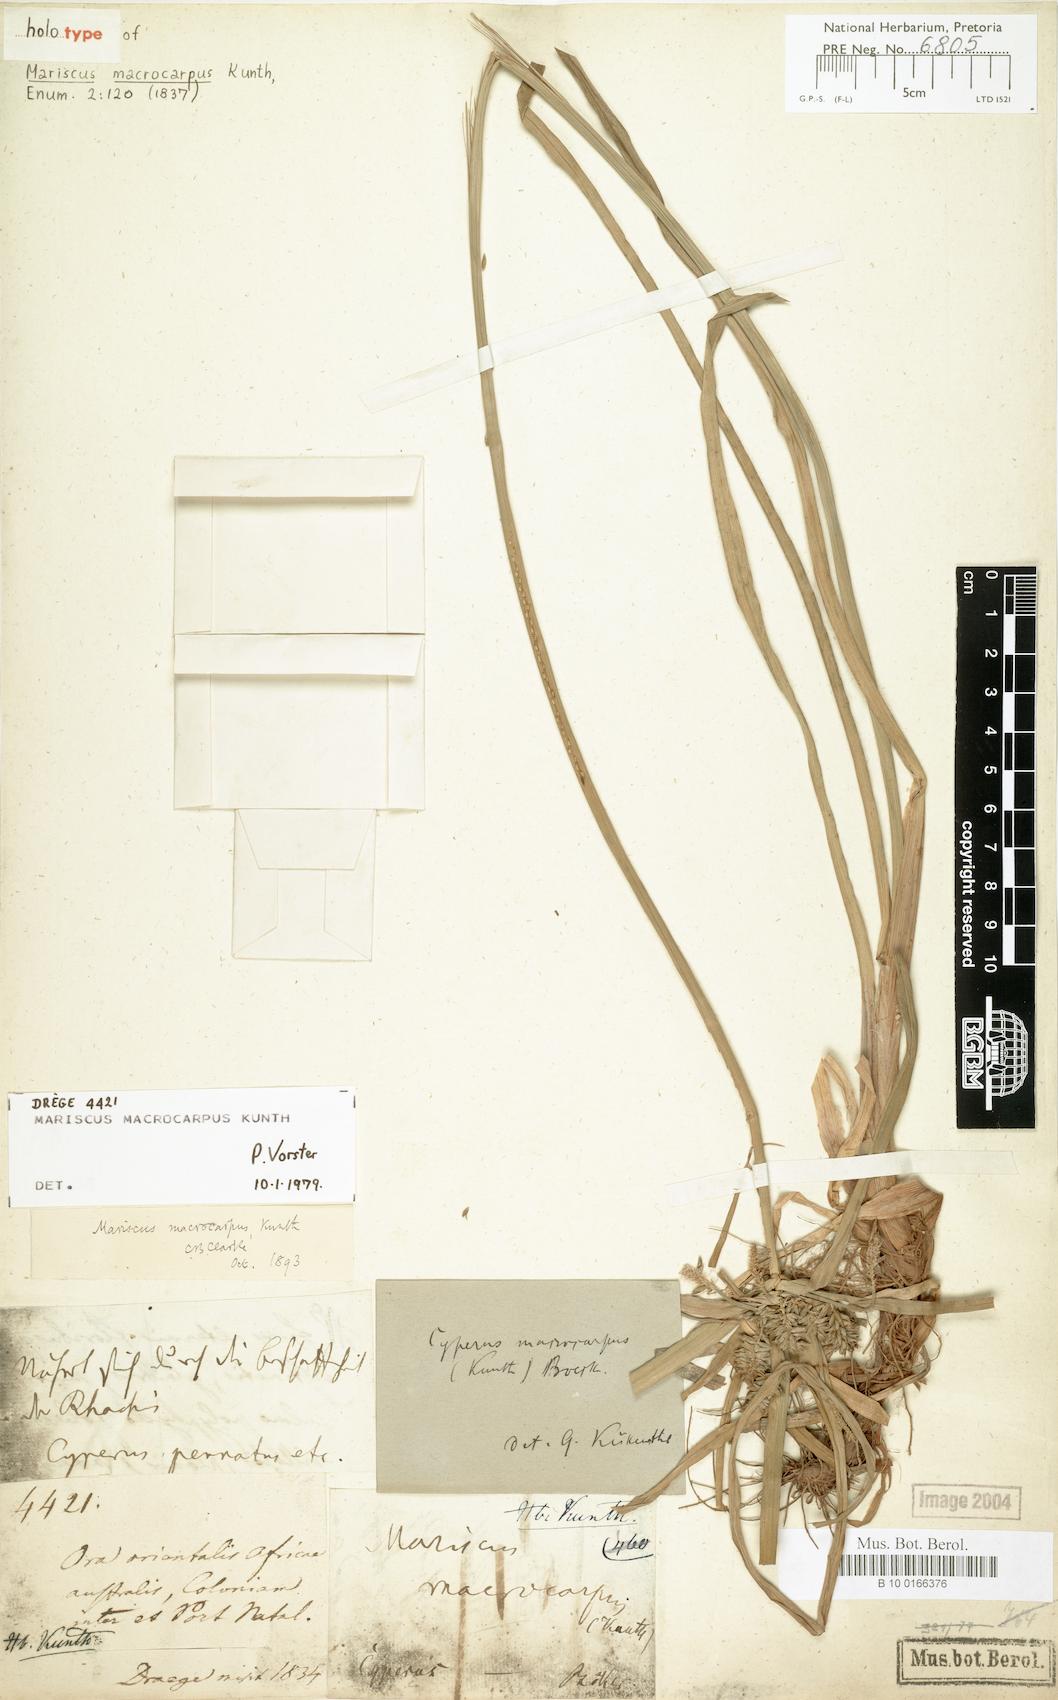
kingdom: Plantae
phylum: Tracheophyta
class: Liliopsida
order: Poales
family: Cyperaceae
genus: Cyperus
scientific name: Cyperus macrocarpus
